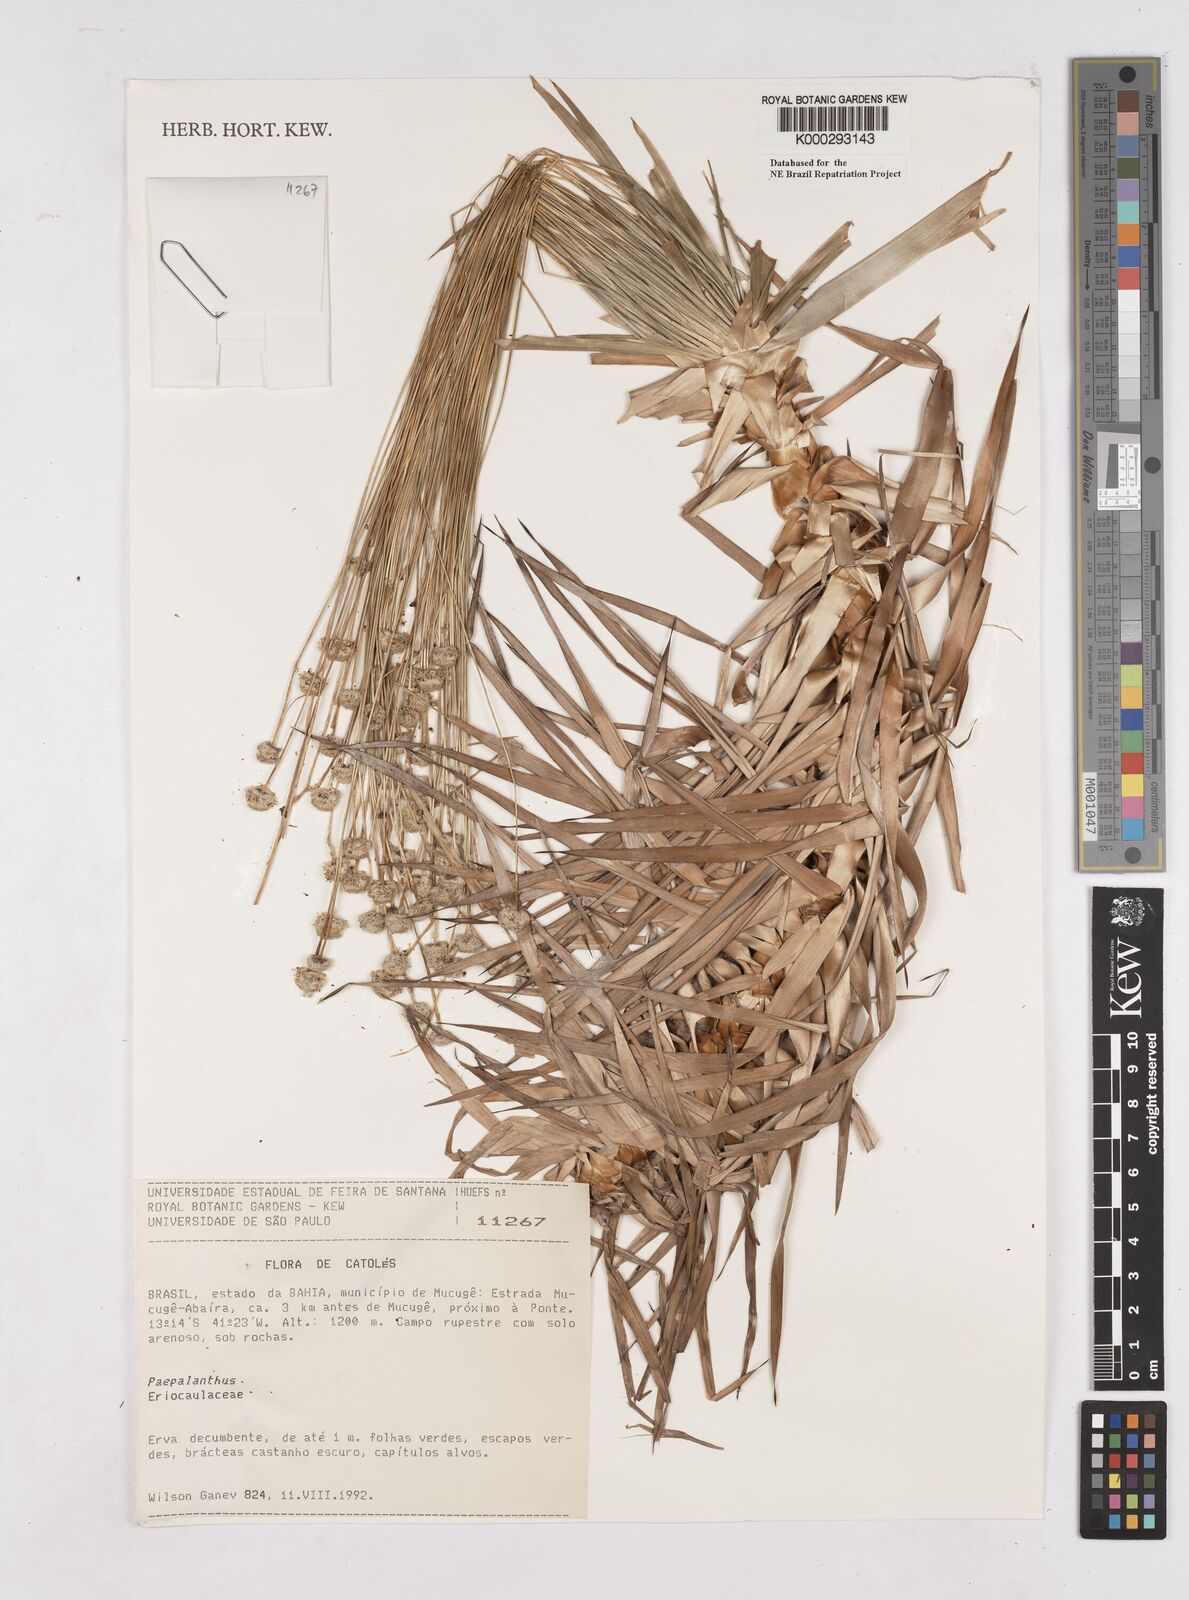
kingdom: Plantae
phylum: Tracheophyta
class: Liliopsida
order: Poales
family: Eriocaulaceae
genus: Paepalanthus
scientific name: Paepalanthus
